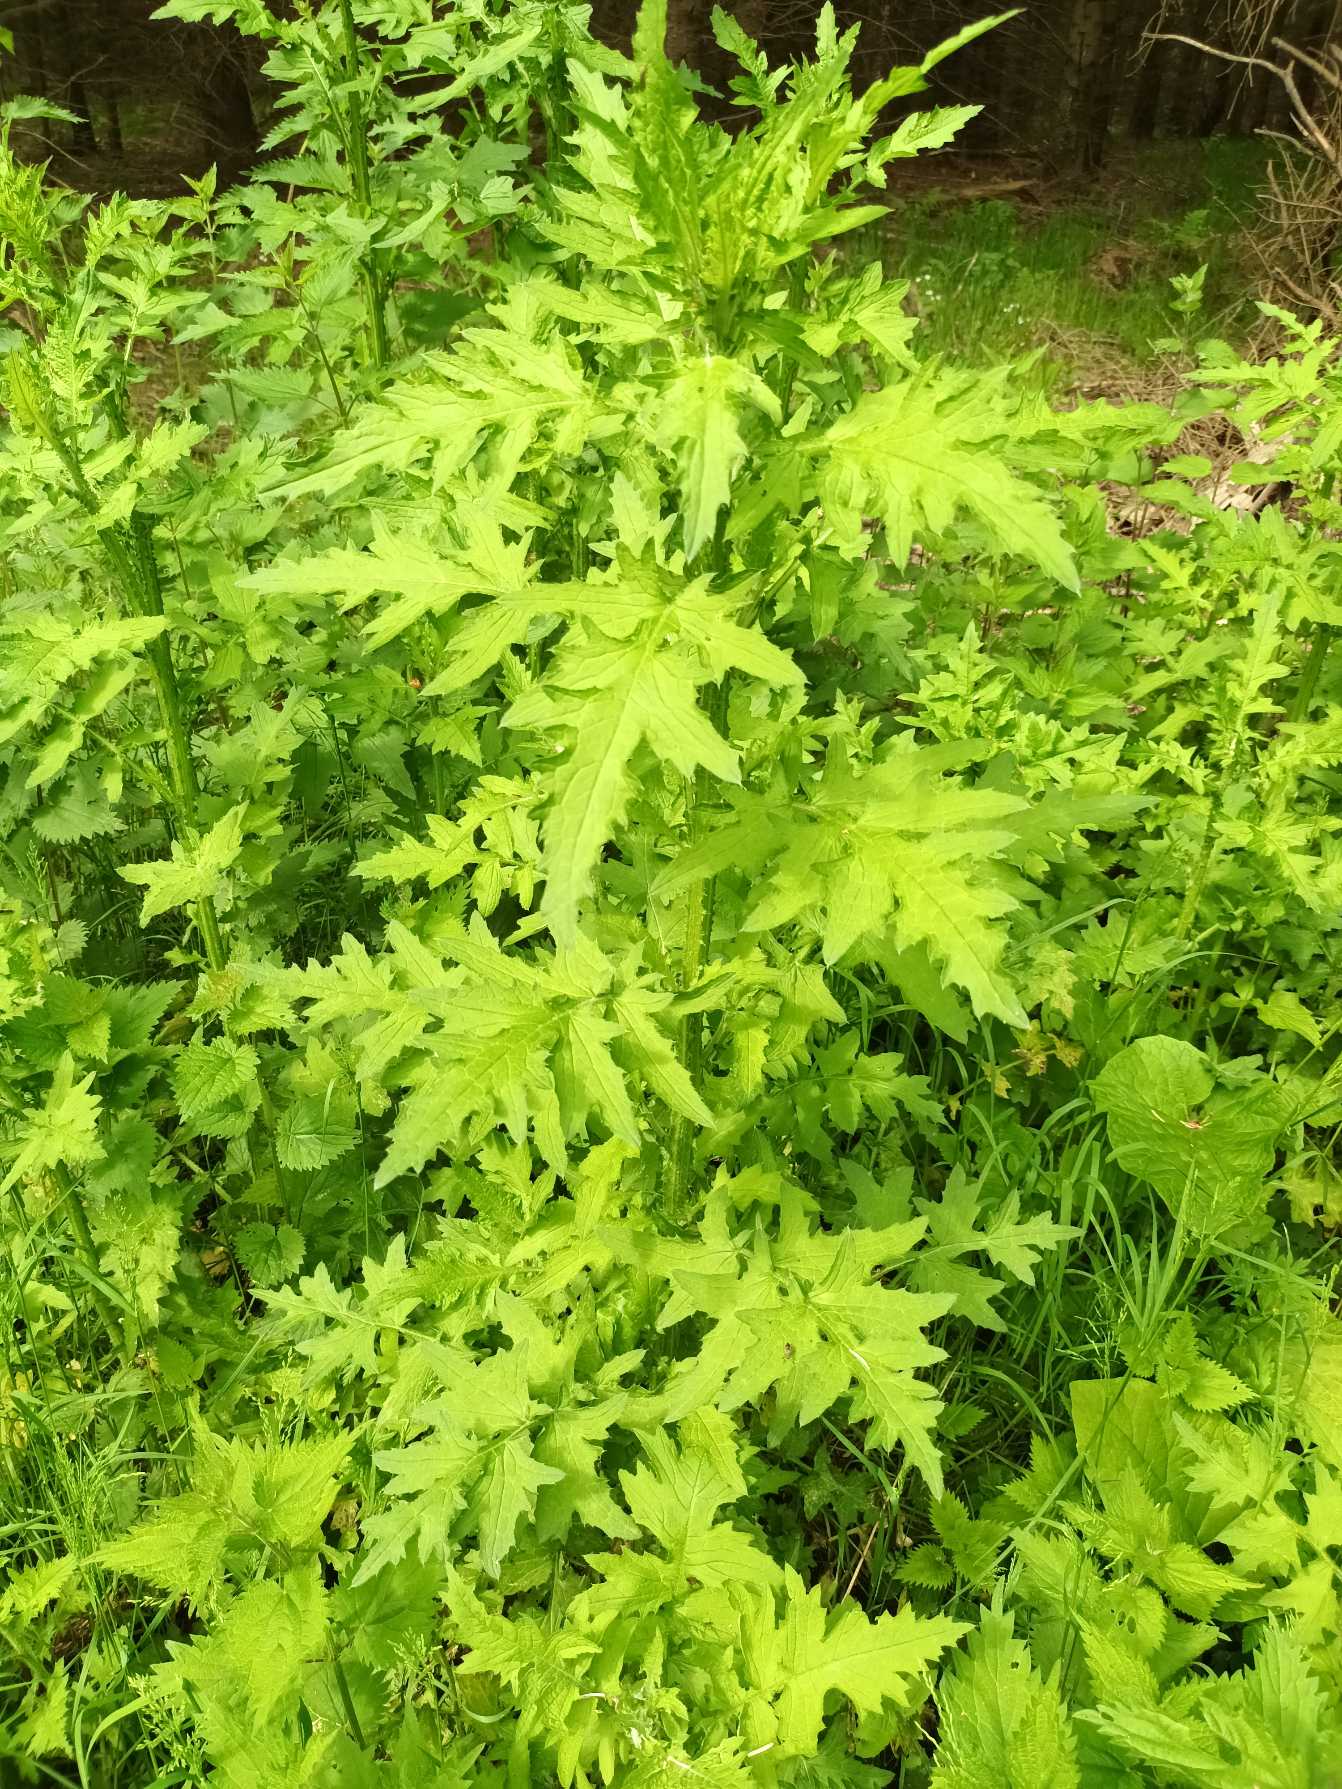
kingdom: Plantae
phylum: Tracheophyta
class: Magnoliopsida
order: Asterales
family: Asteraceae
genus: Carduus
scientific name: Carduus crispus
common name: Kruset tidsel
